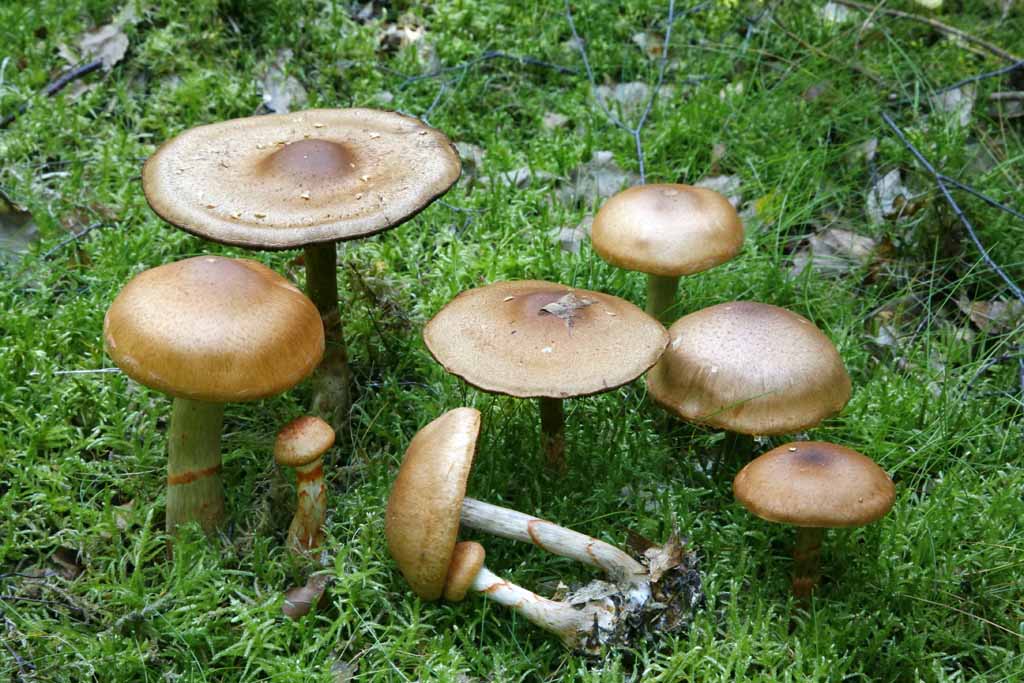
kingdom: Fungi
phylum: Basidiomycota
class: Agaricomycetes
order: Agaricales
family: Cortinariaceae
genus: Cortinarius
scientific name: Cortinarius armillatus
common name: cinnoberbæltet slørhat
